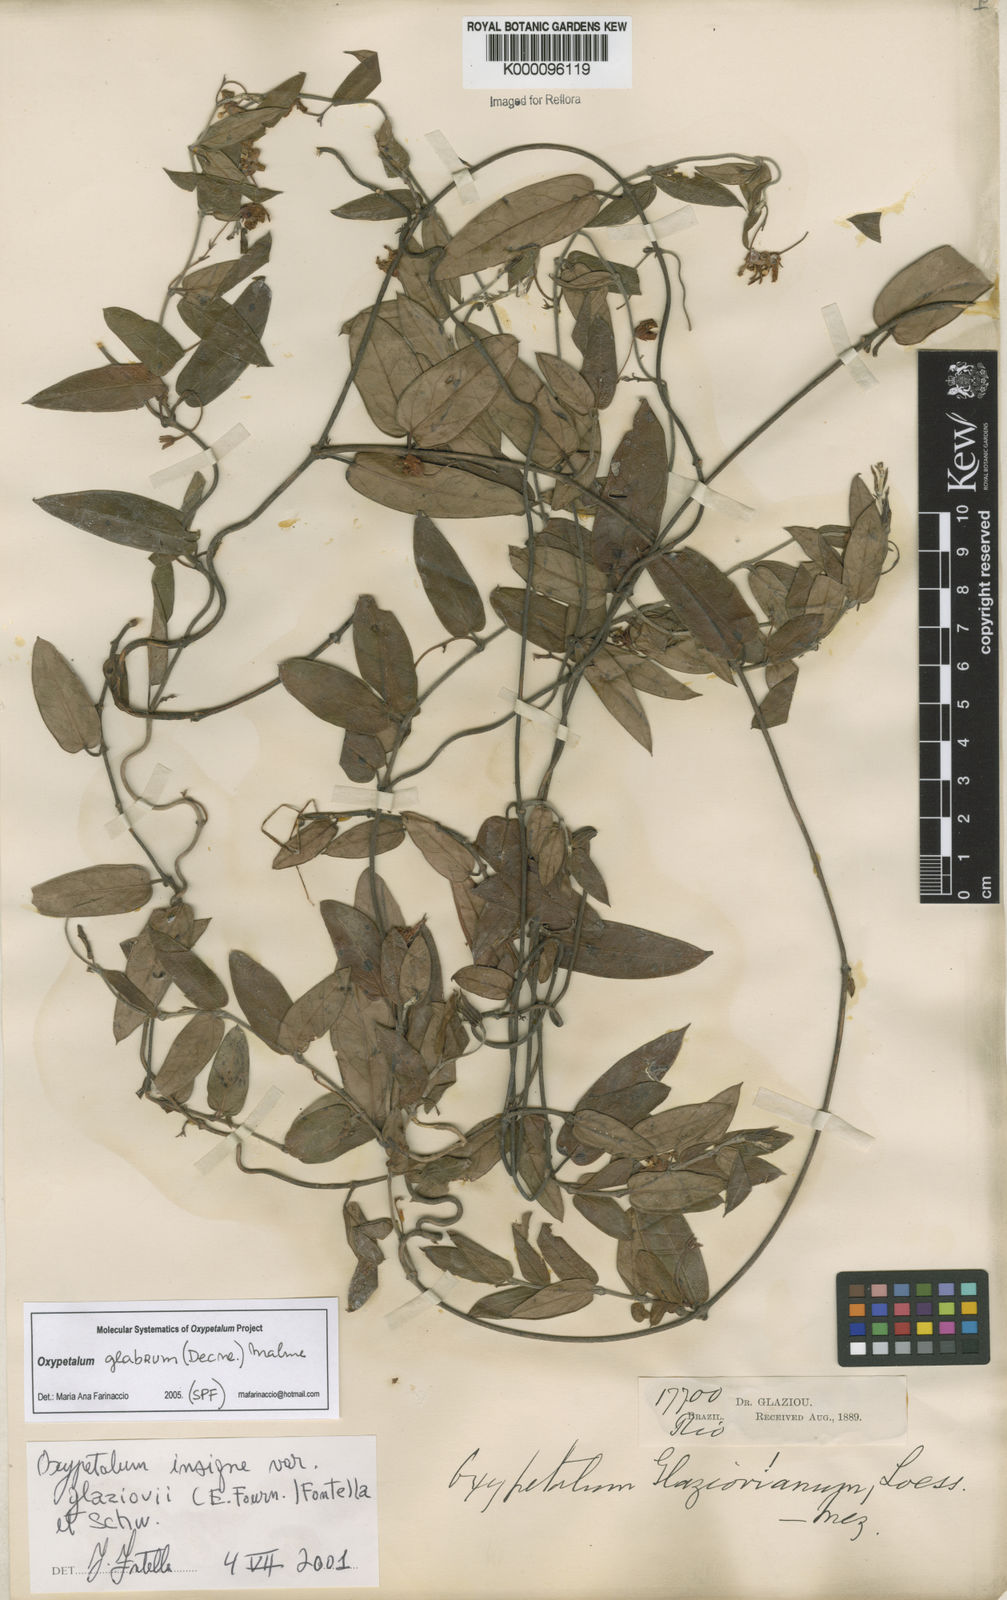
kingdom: Plantae
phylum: Tracheophyta
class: Magnoliopsida
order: Gentianales
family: Apocynaceae
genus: Oxypetalum
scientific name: Oxypetalum insigne
